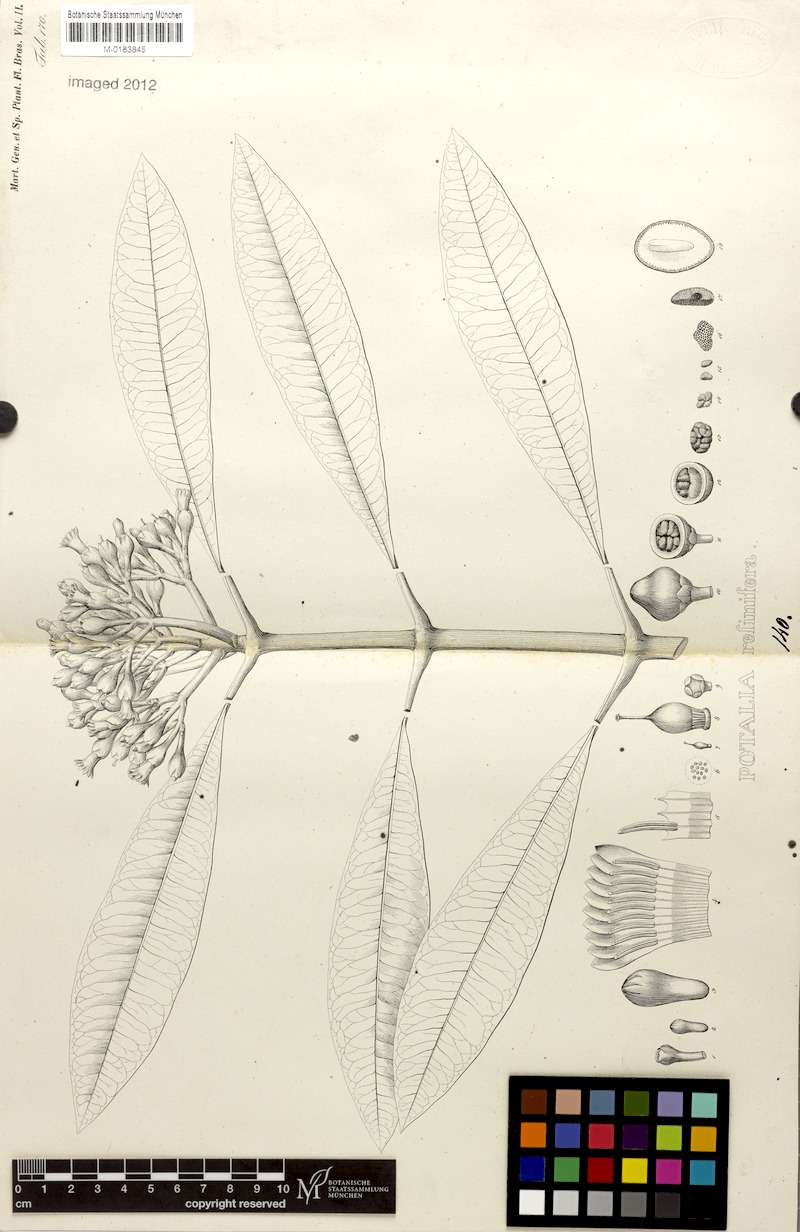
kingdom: Plantae
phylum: Tracheophyta
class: Magnoliopsida
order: Gentianales
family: Gentianaceae
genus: Potalia
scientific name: Potalia resinifera
